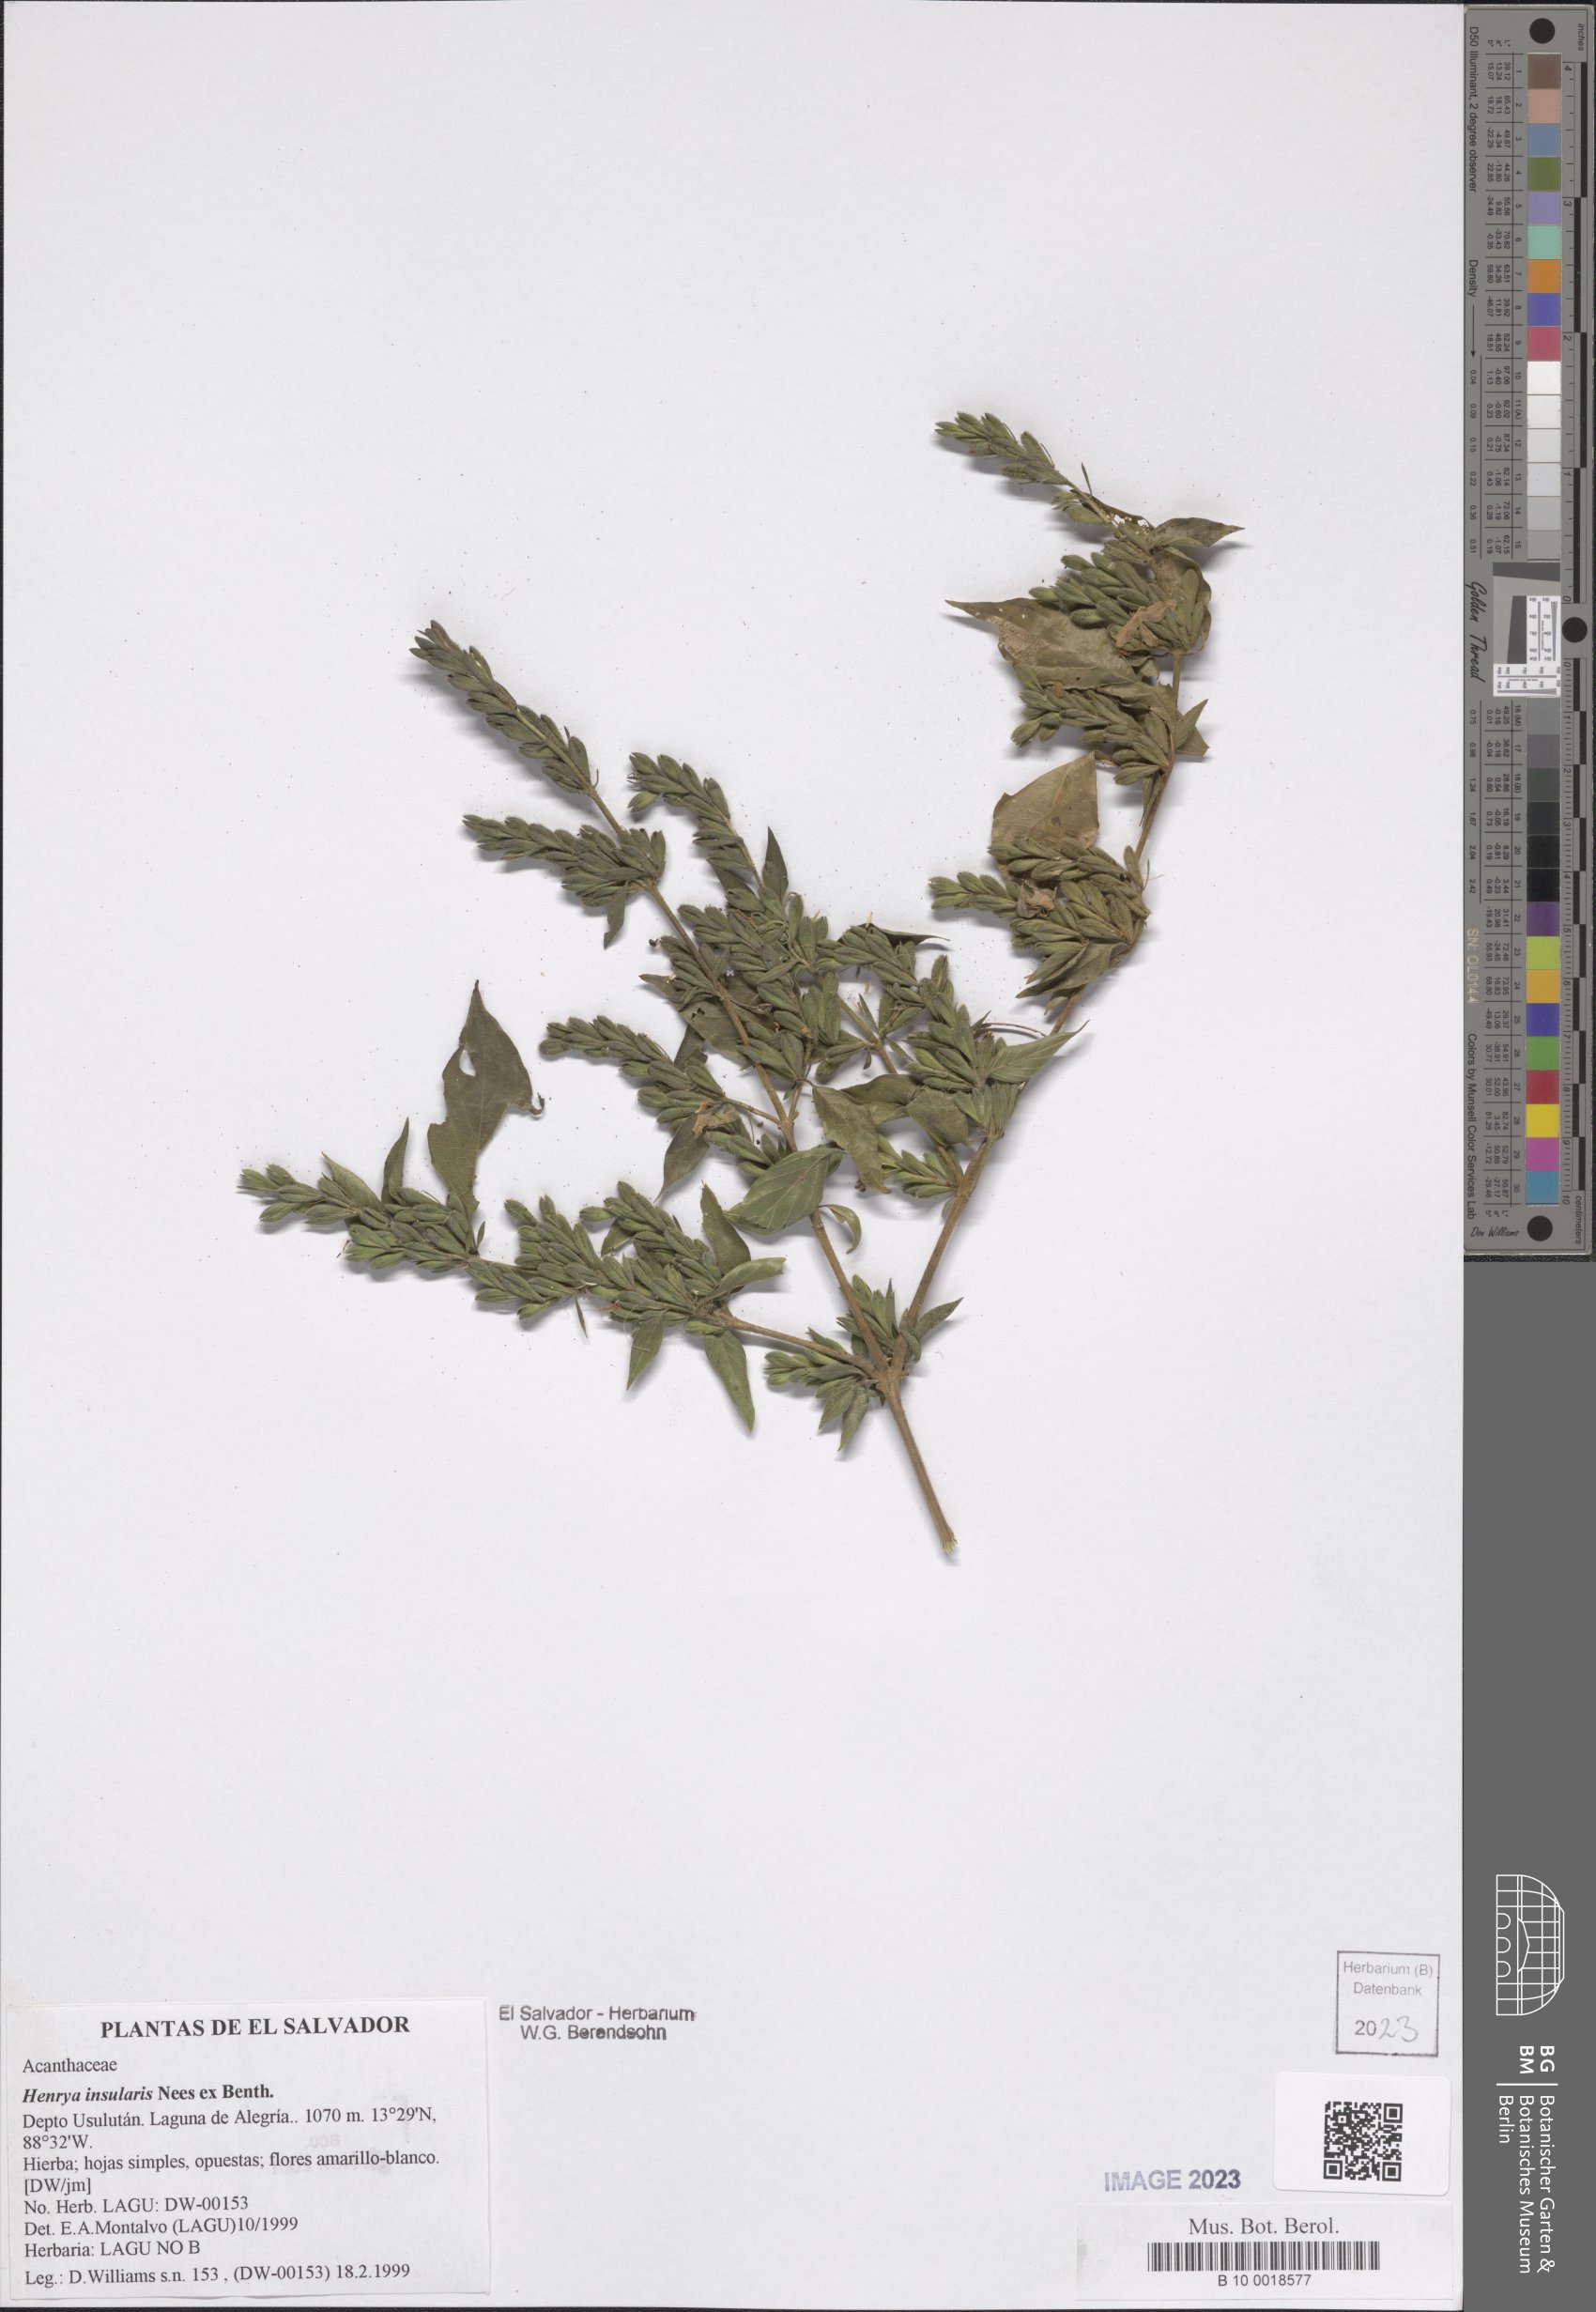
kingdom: Plantae
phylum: Tracheophyta
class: Magnoliopsida
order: Lamiales
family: Acanthaceae
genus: Henrya
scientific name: Henrya insularis
